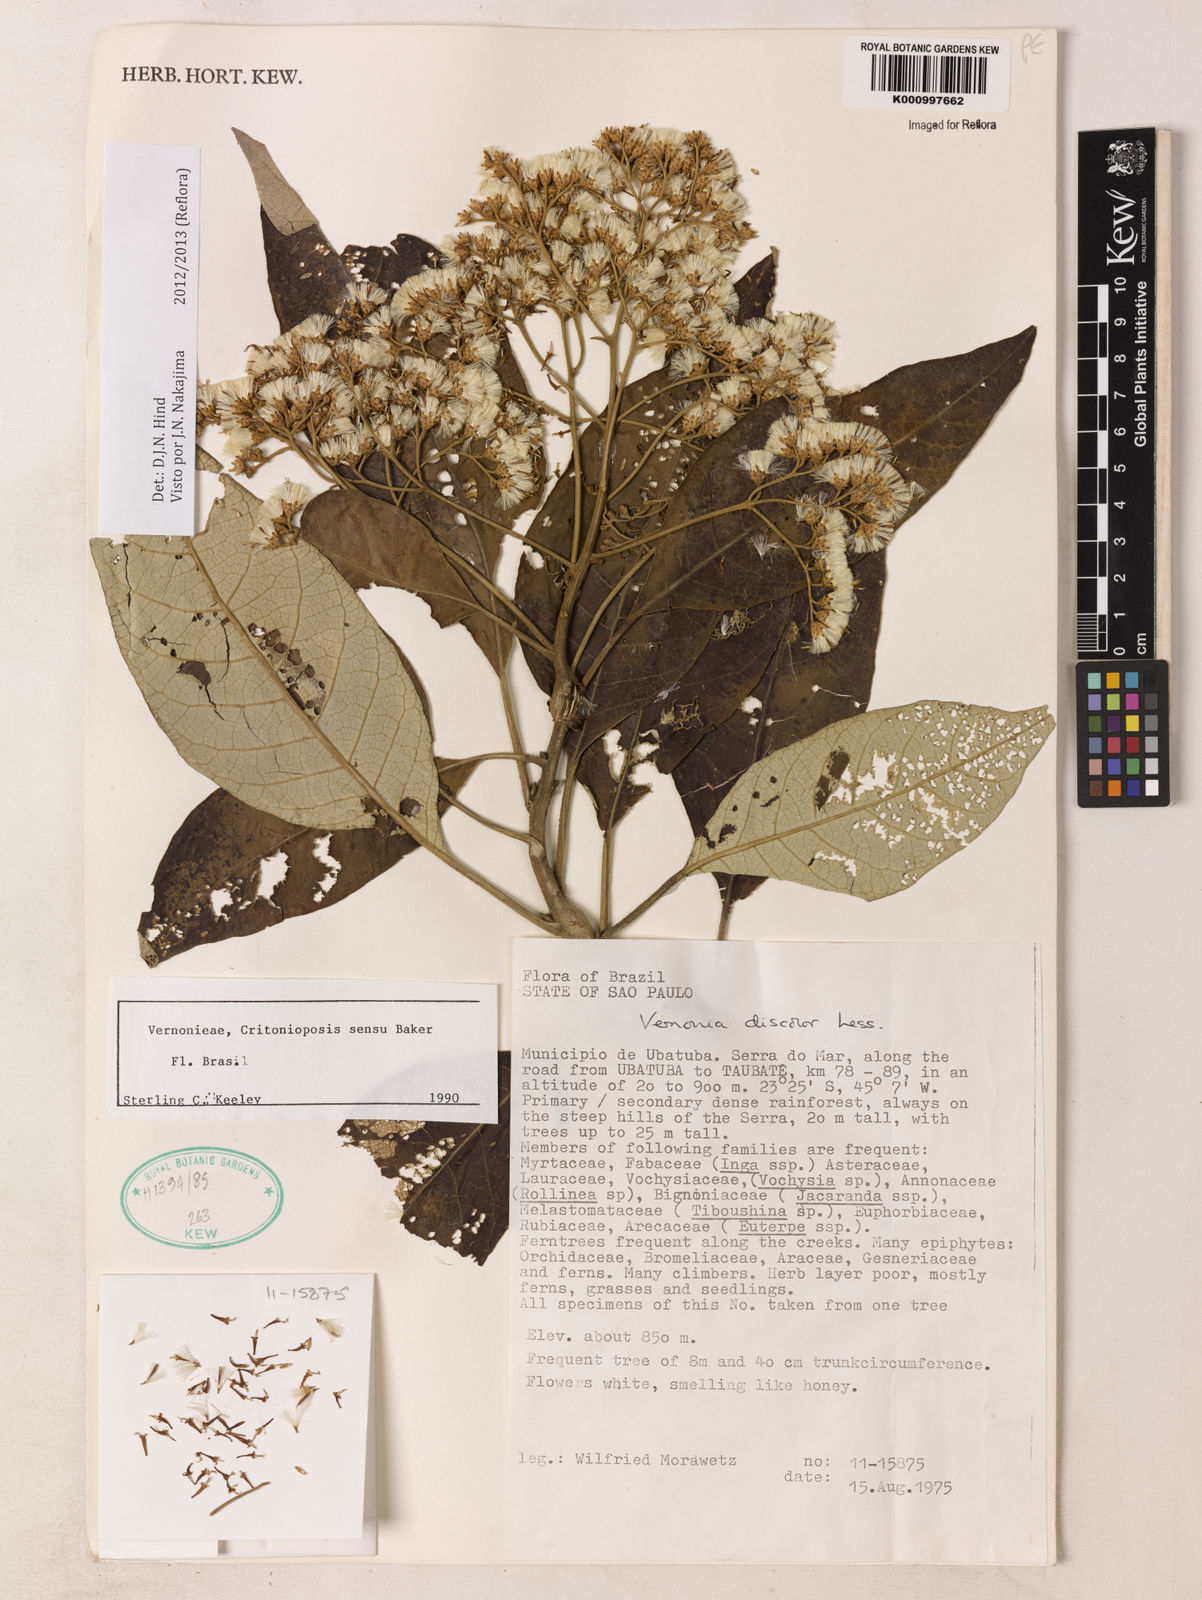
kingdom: Plantae
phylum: Tracheophyta
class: Magnoliopsida
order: Asterales
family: Asteraceae
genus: Vernonanthura
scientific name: Vernonanthura discolor
